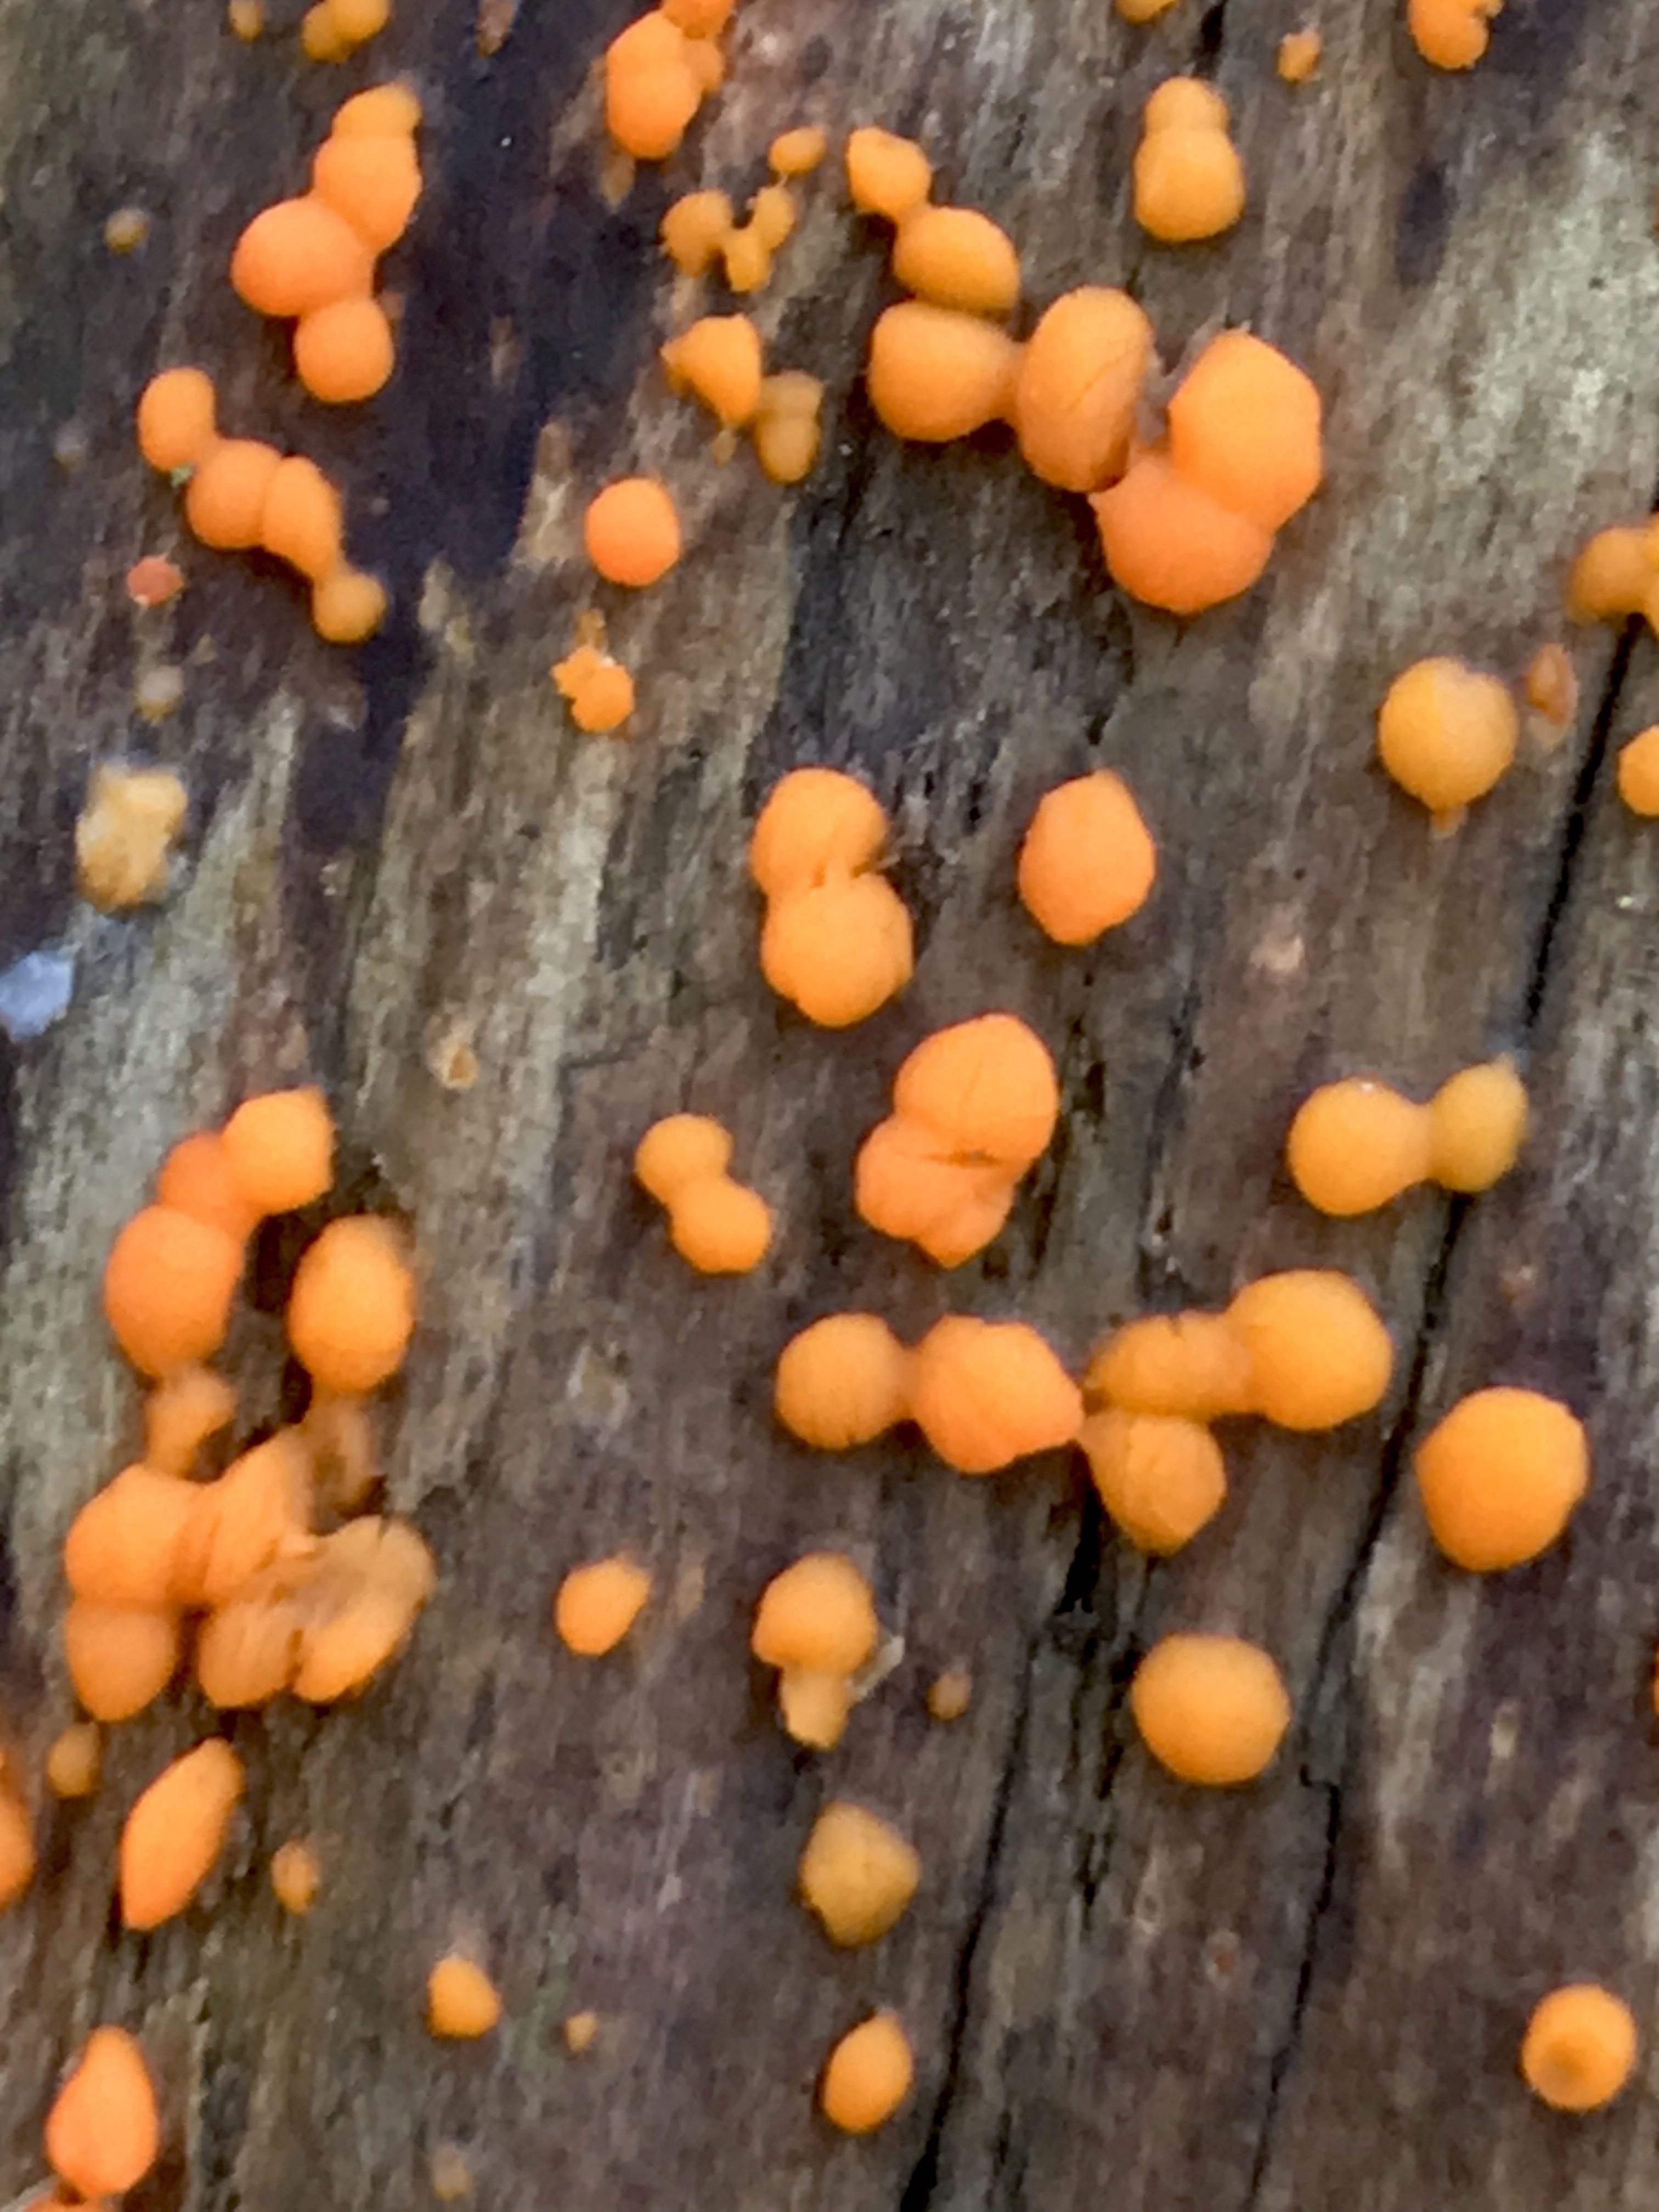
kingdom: Fungi
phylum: Basidiomycota
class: Dacrymycetes
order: Dacrymycetales
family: Dacrymycetaceae
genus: Dacrymyces
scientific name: Dacrymyces stillatus
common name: almindelig tåresvamp
